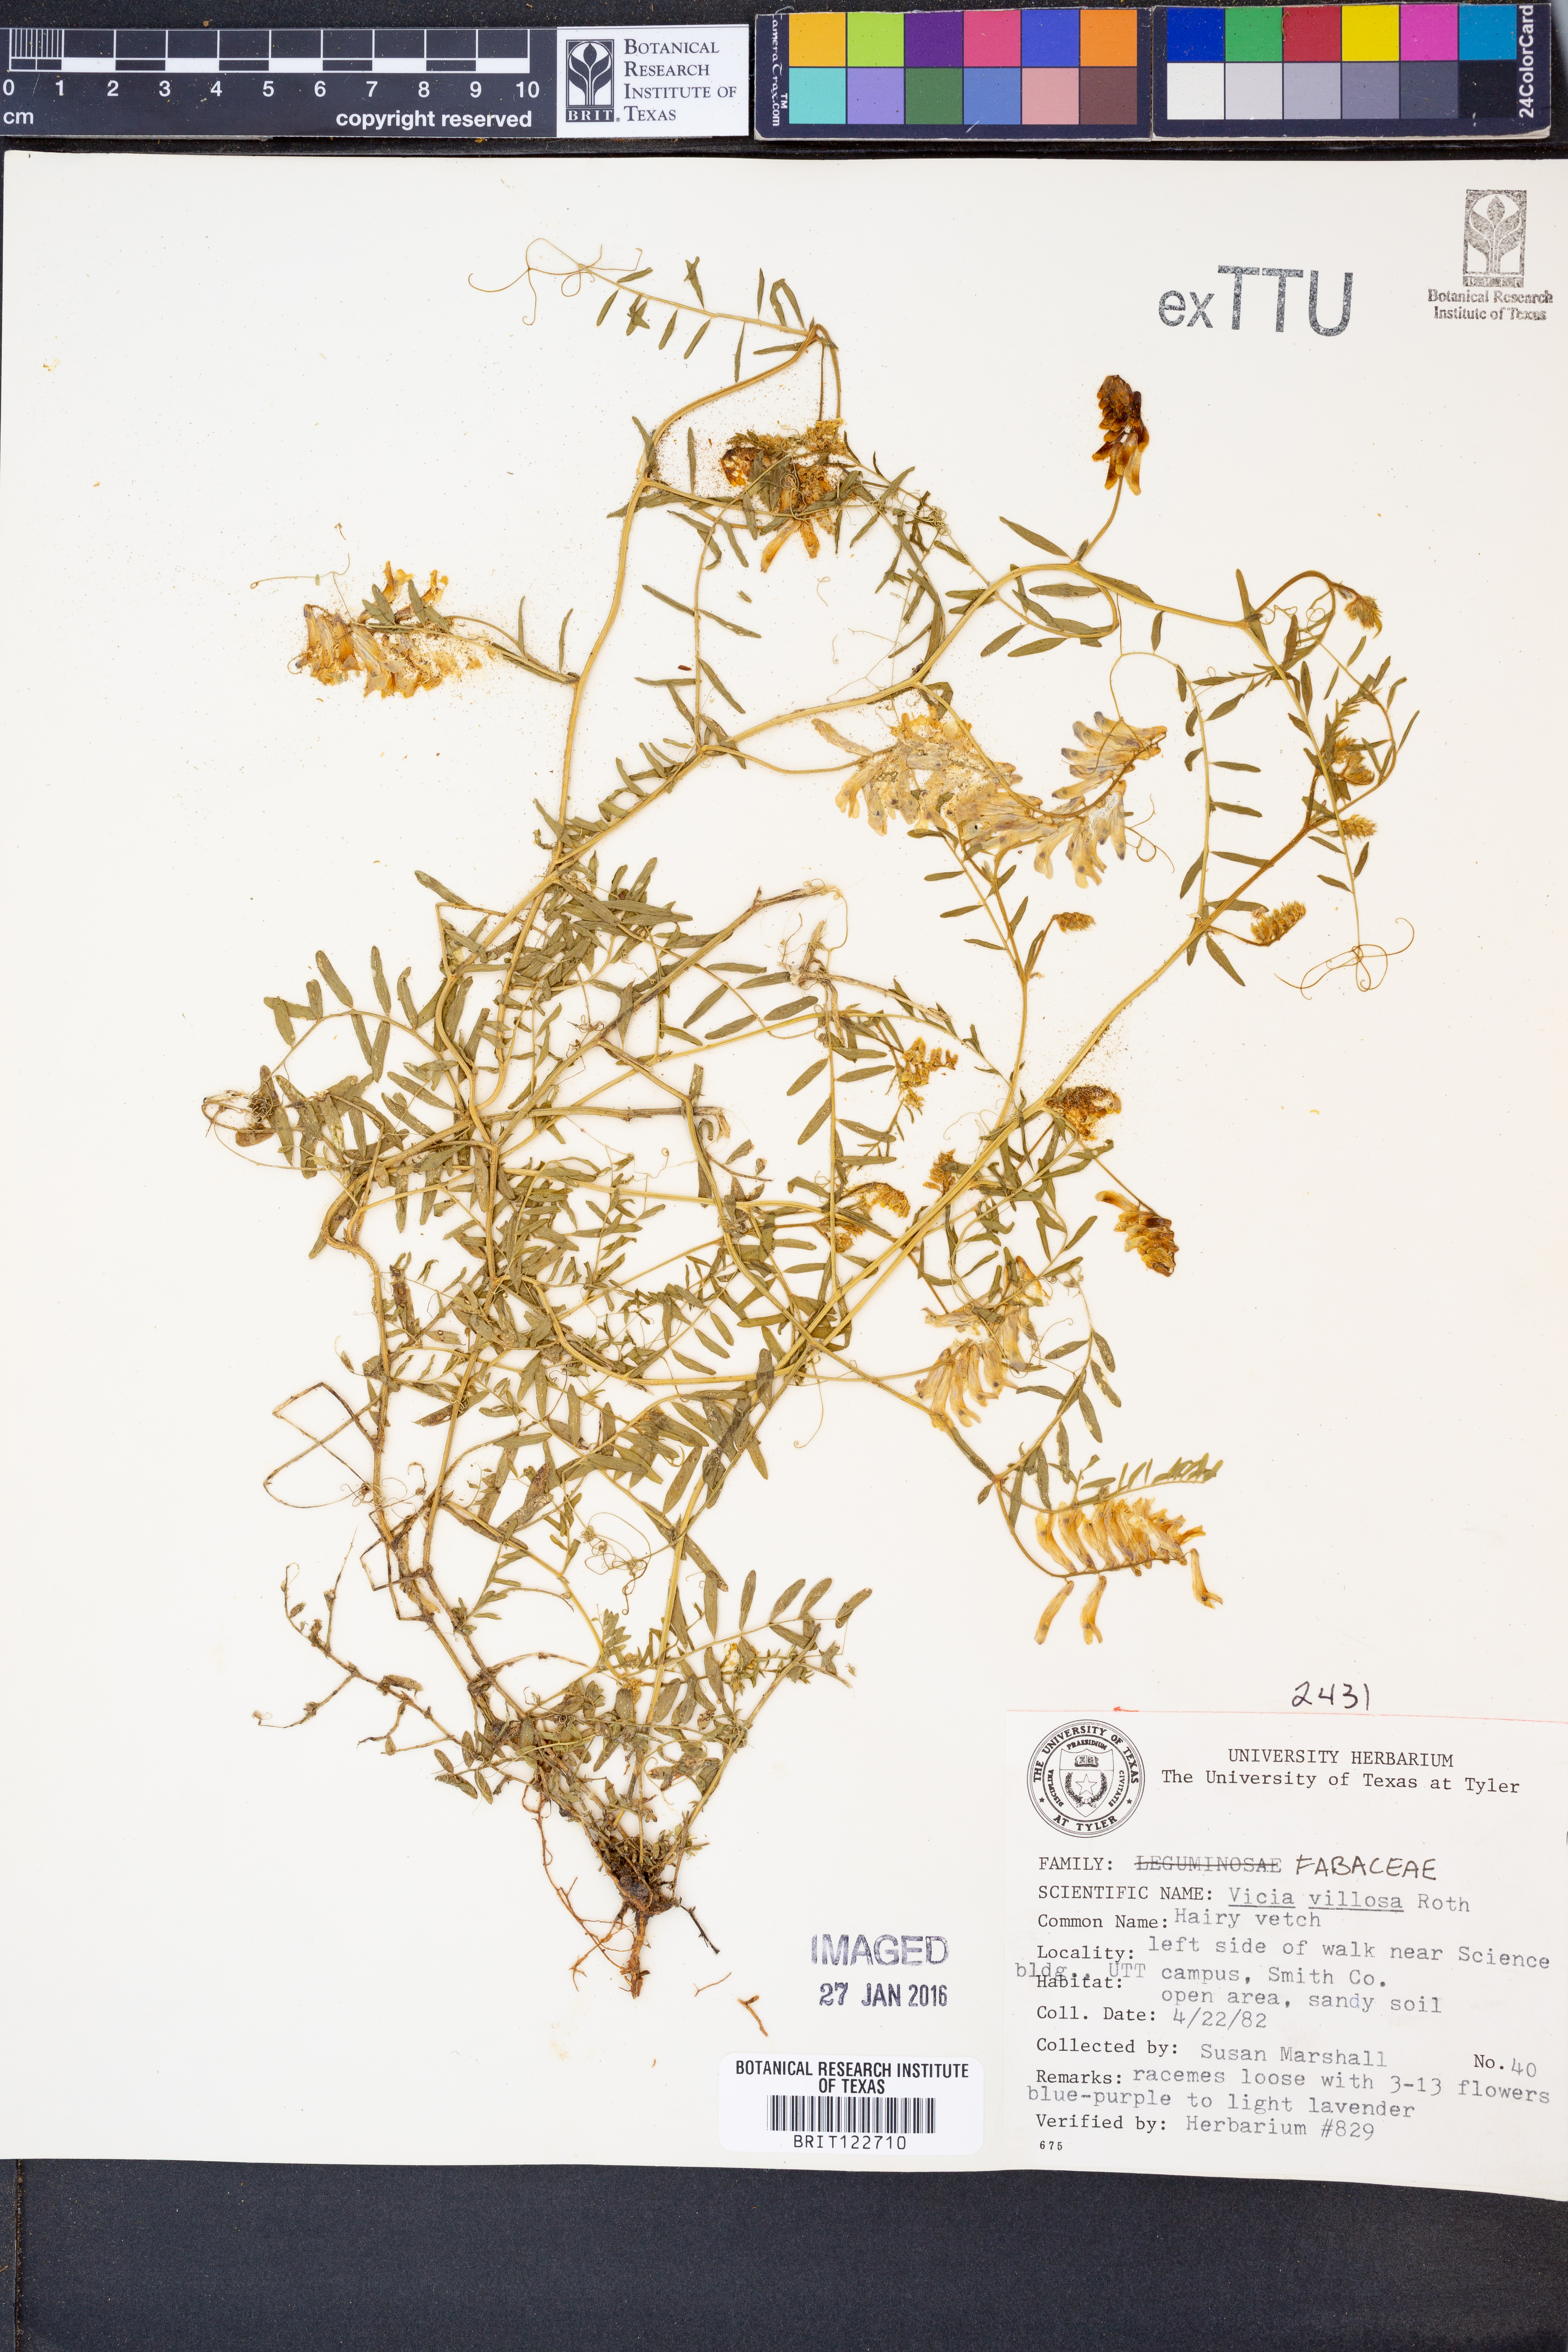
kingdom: Plantae
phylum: Tracheophyta
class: Magnoliopsida
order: Fabales
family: Fabaceae
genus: Vicia
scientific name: Vicia villosa
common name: Fodder vetch
